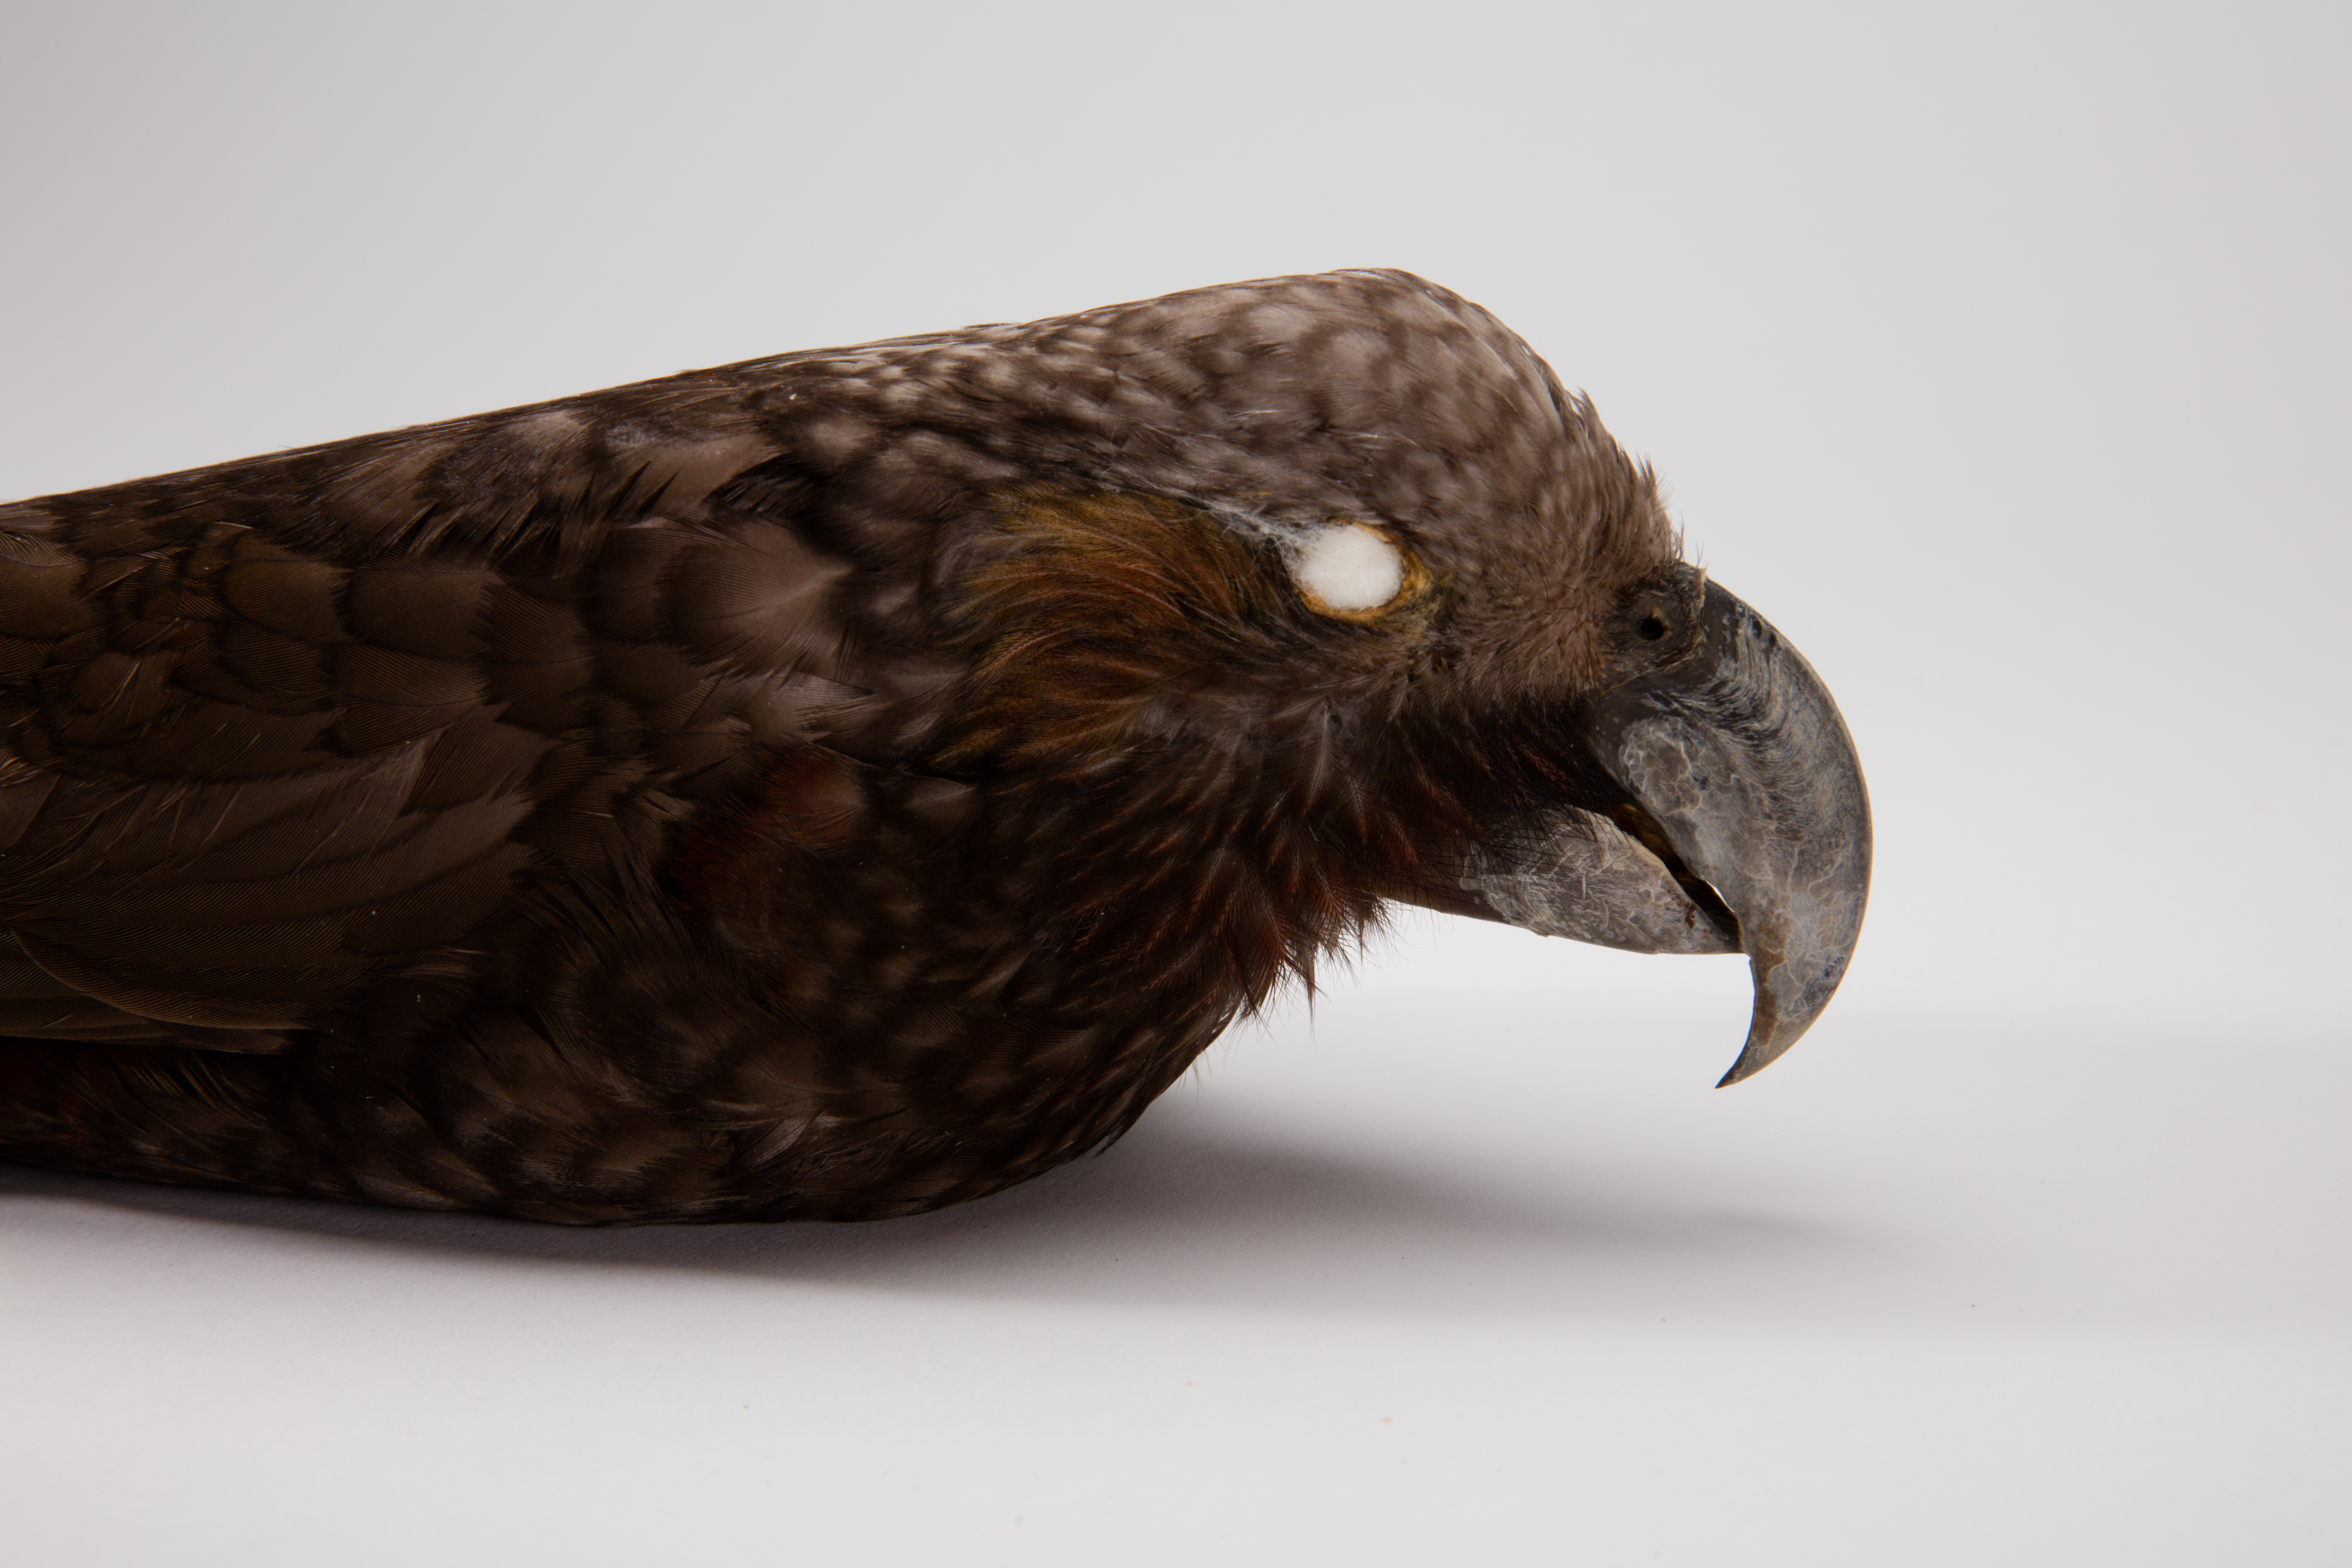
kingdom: Animalia
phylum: Chordata
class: Aves
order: Psittaciformes
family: Psittacidae
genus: Nestor
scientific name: Nestor meridionalis
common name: New zealand kaka
